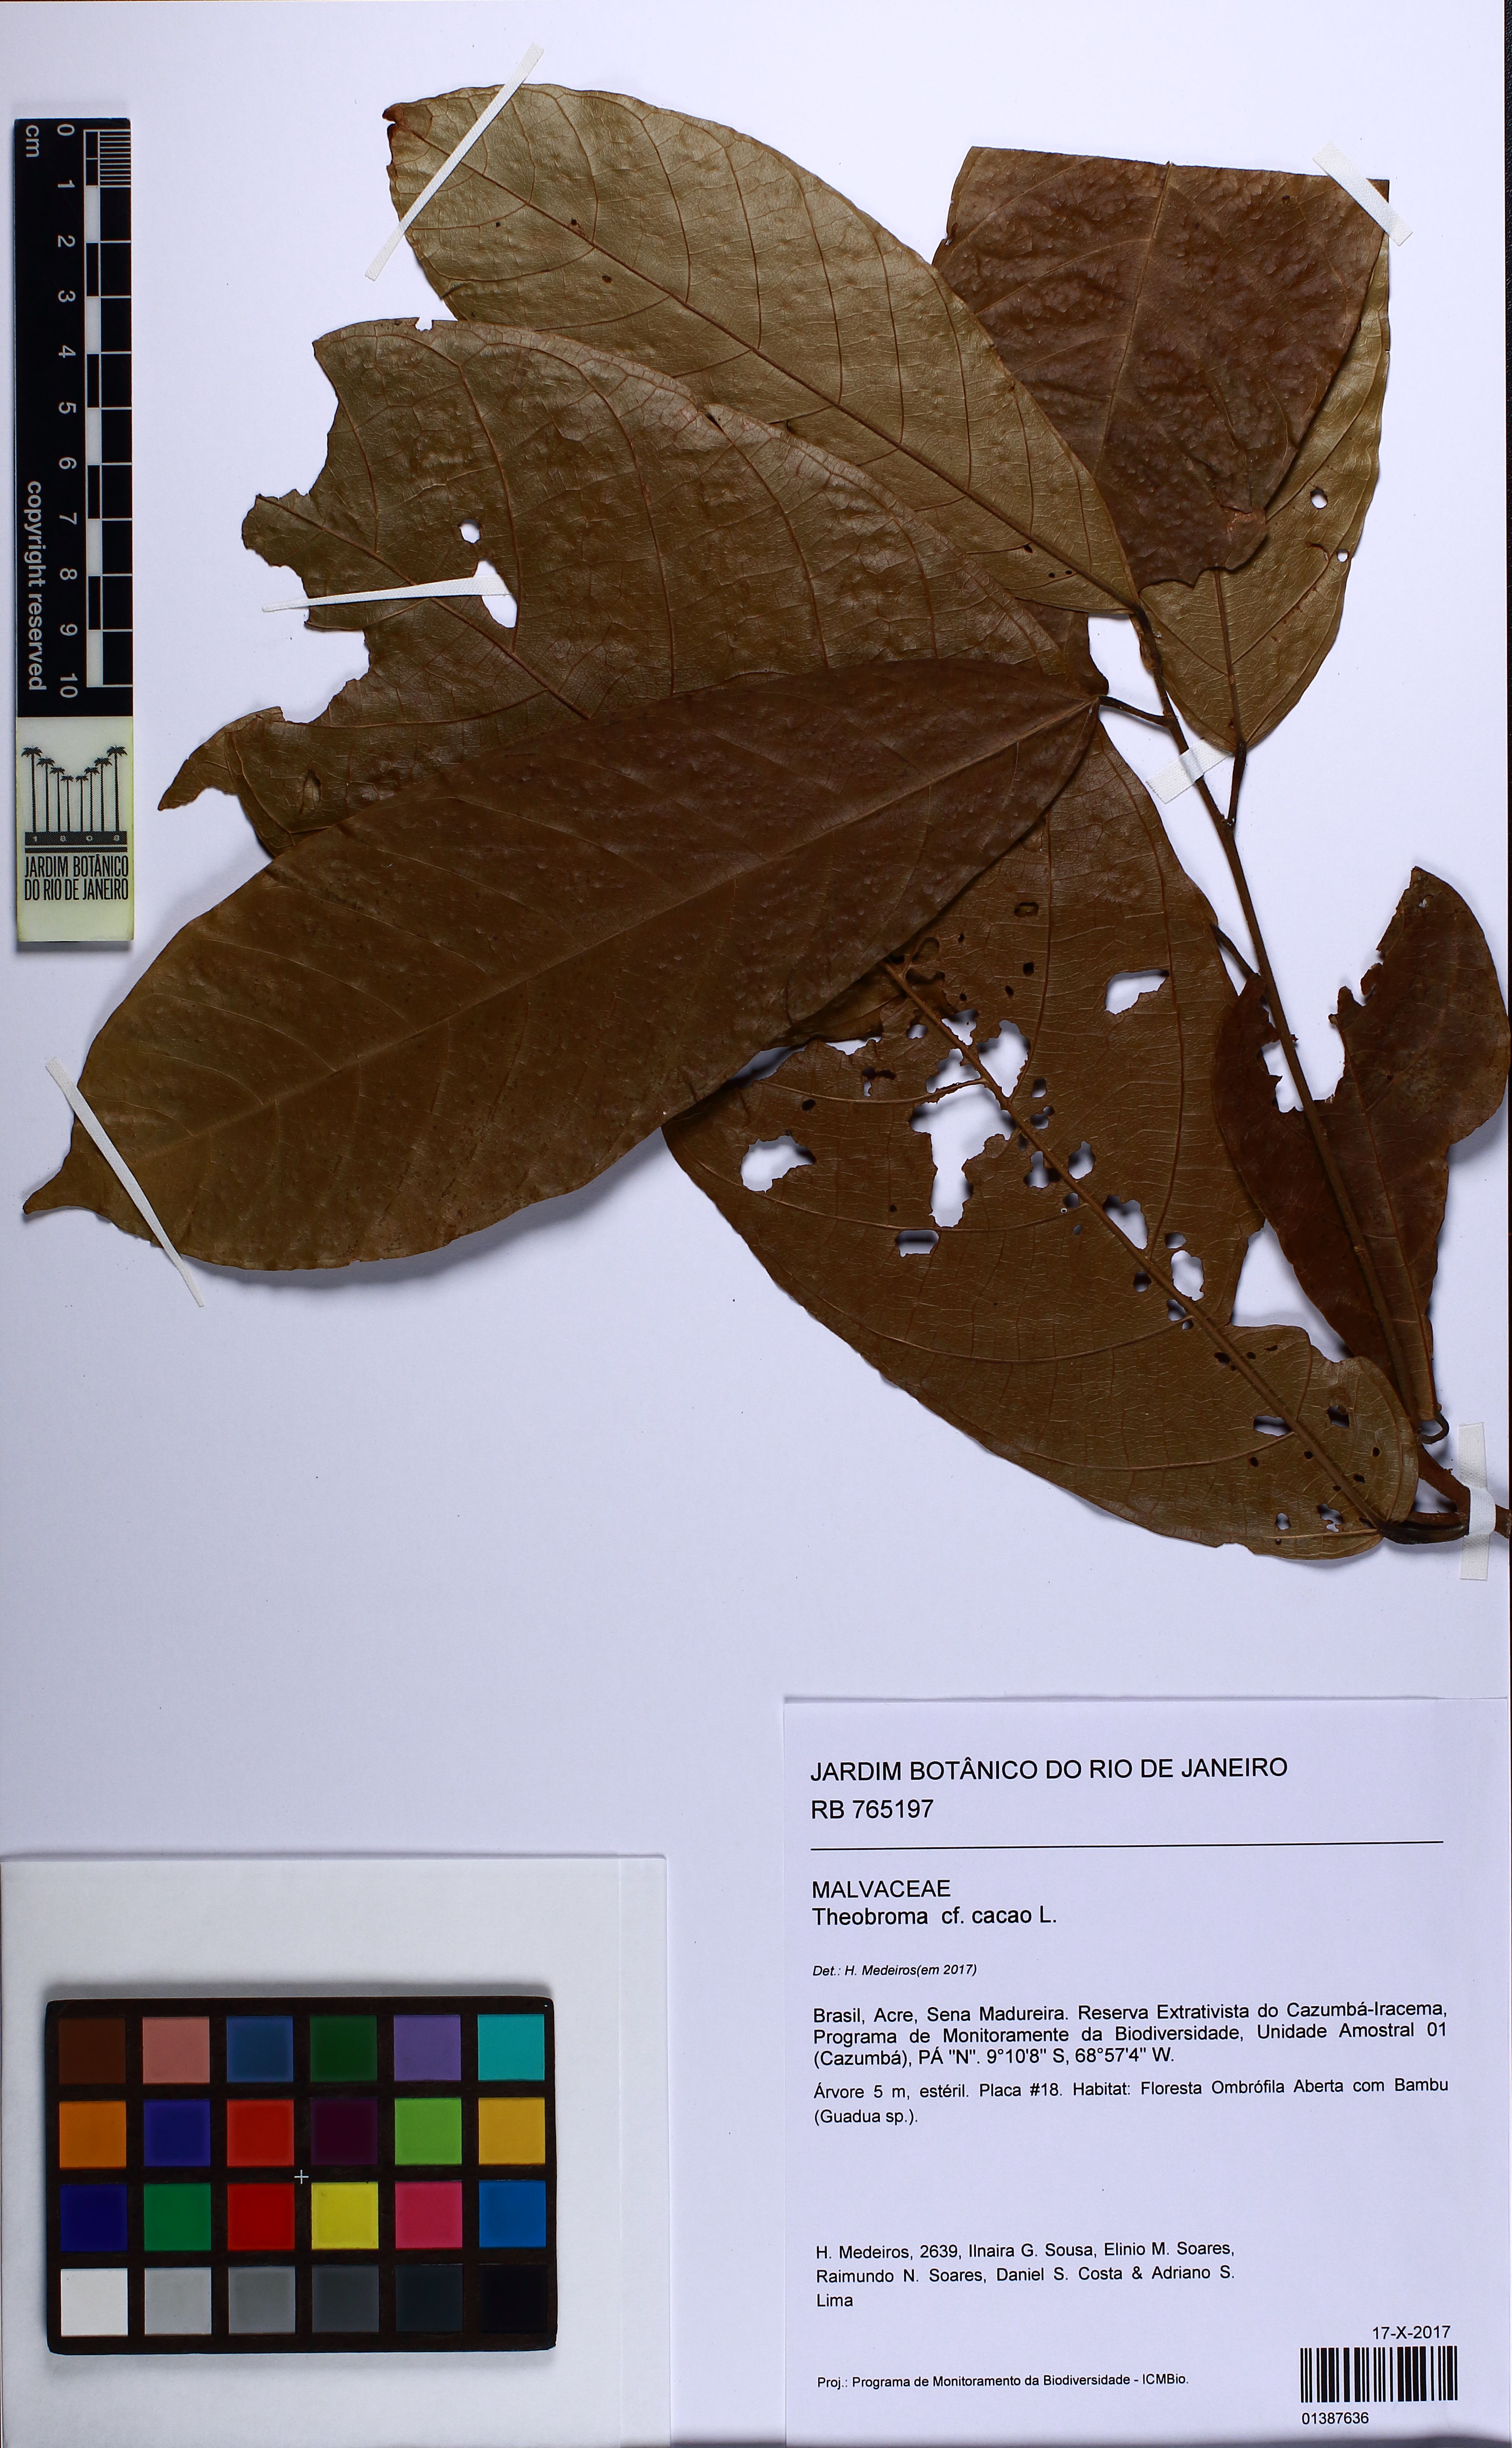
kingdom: Plantae
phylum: Tracheophyta
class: Magnoliopsida
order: Malvales
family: Malvaceae
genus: Theobroma
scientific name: Theobroma cacao
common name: Cocoa
